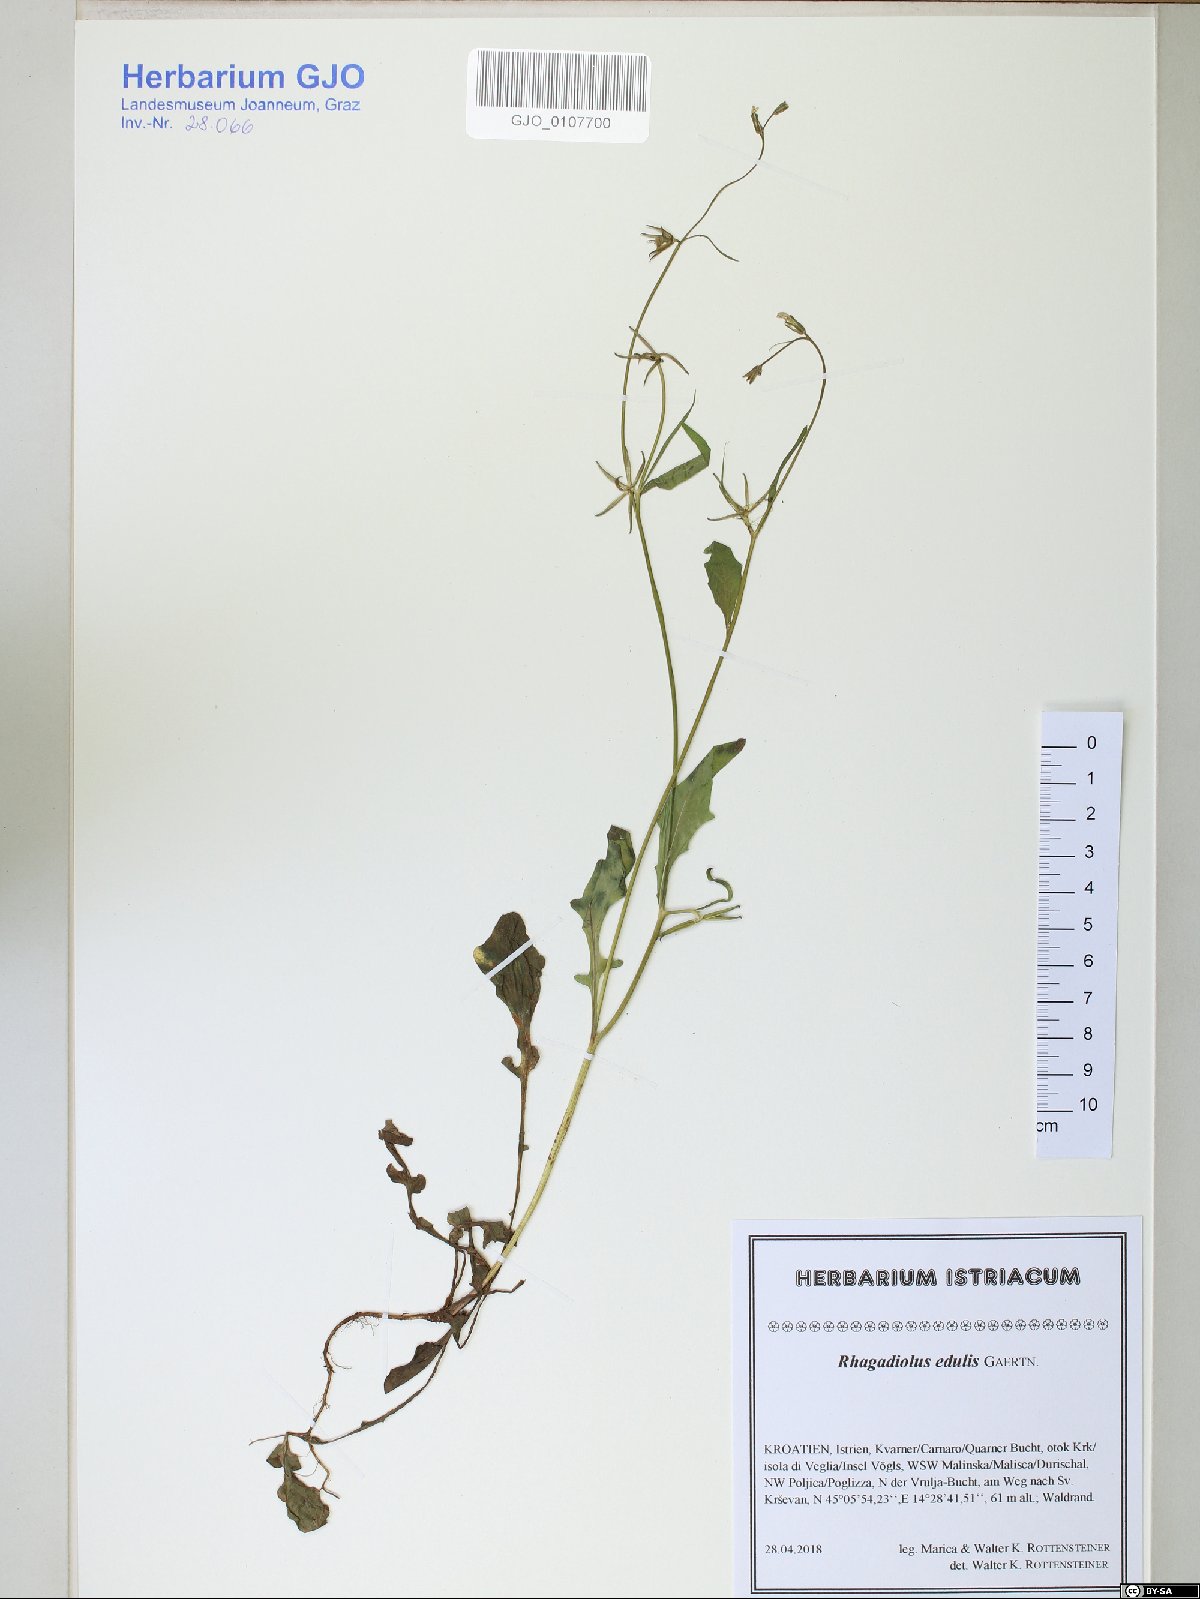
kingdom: Plantae
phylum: Tracheophyta
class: Magnoliopsida
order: Asterales
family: Asteraceae
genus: Rhagadiolus
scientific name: Rhagadiolus edulis
